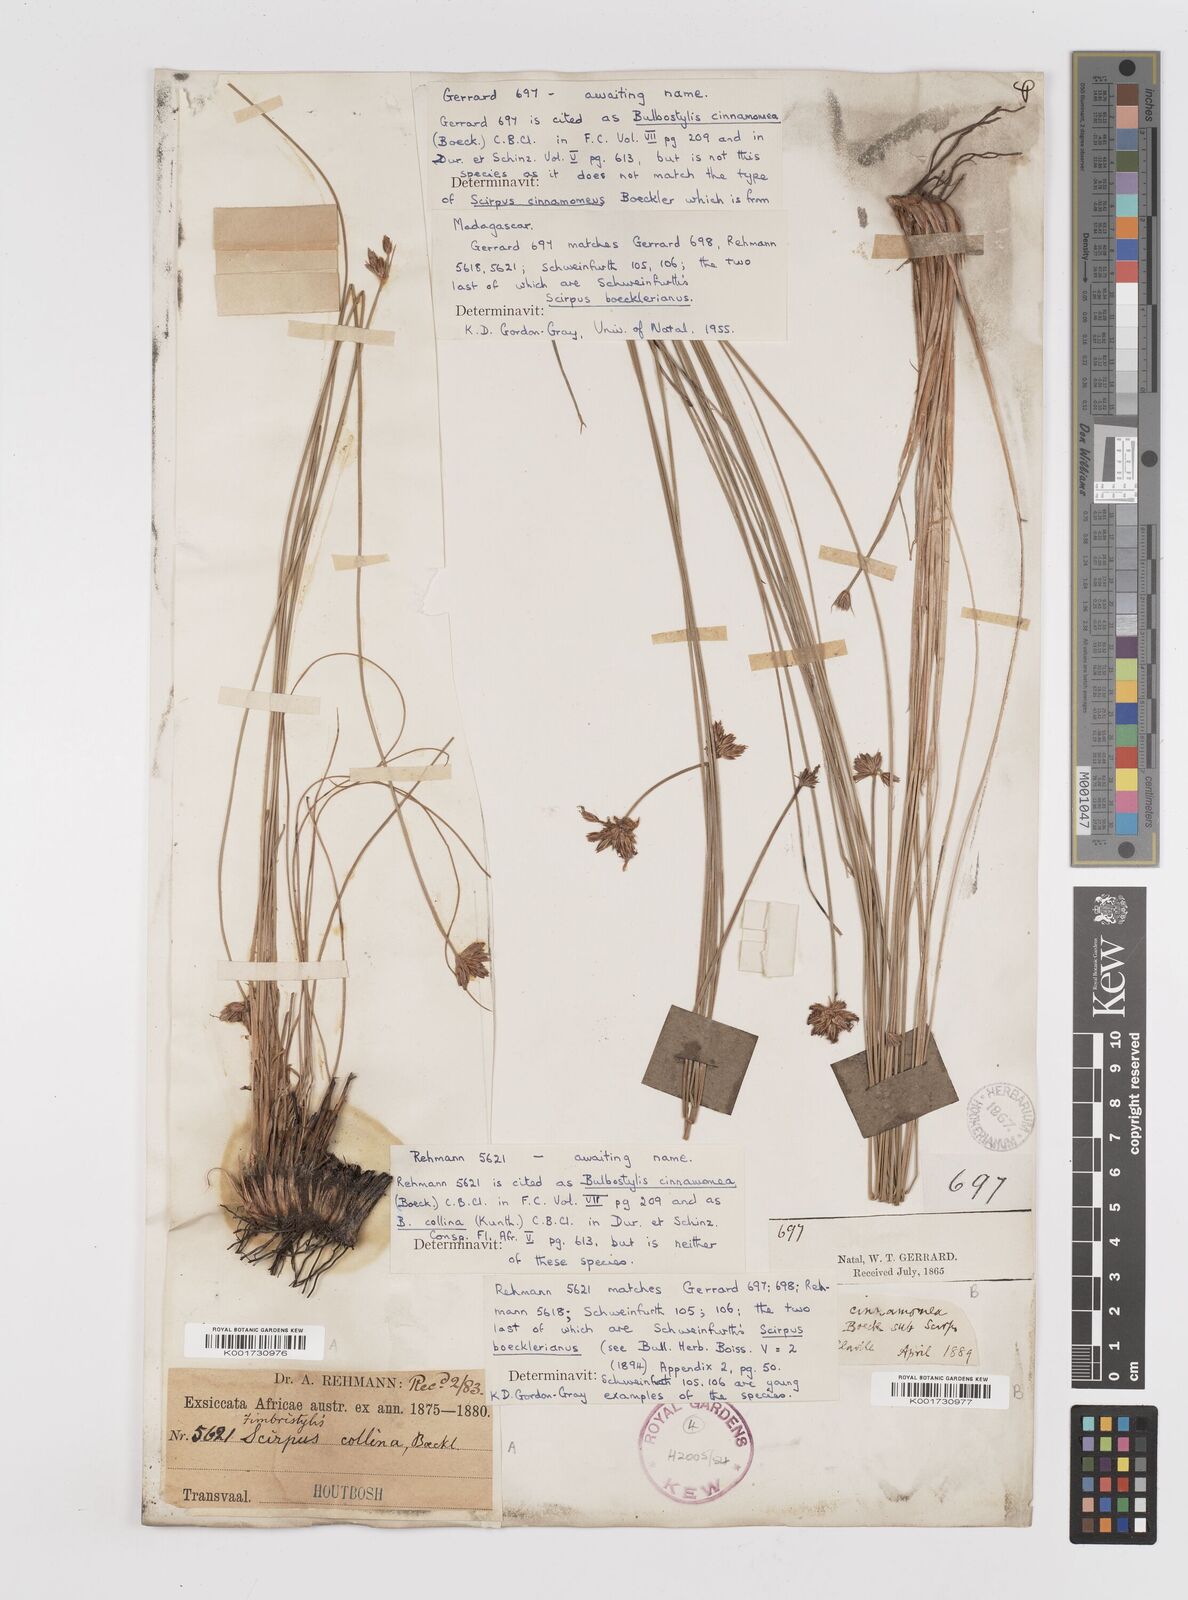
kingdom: Plantae
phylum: Tracheophyta
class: Liliopsida
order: Poales
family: Cyperaceae
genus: Bulbostylis
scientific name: Bulbostylis
